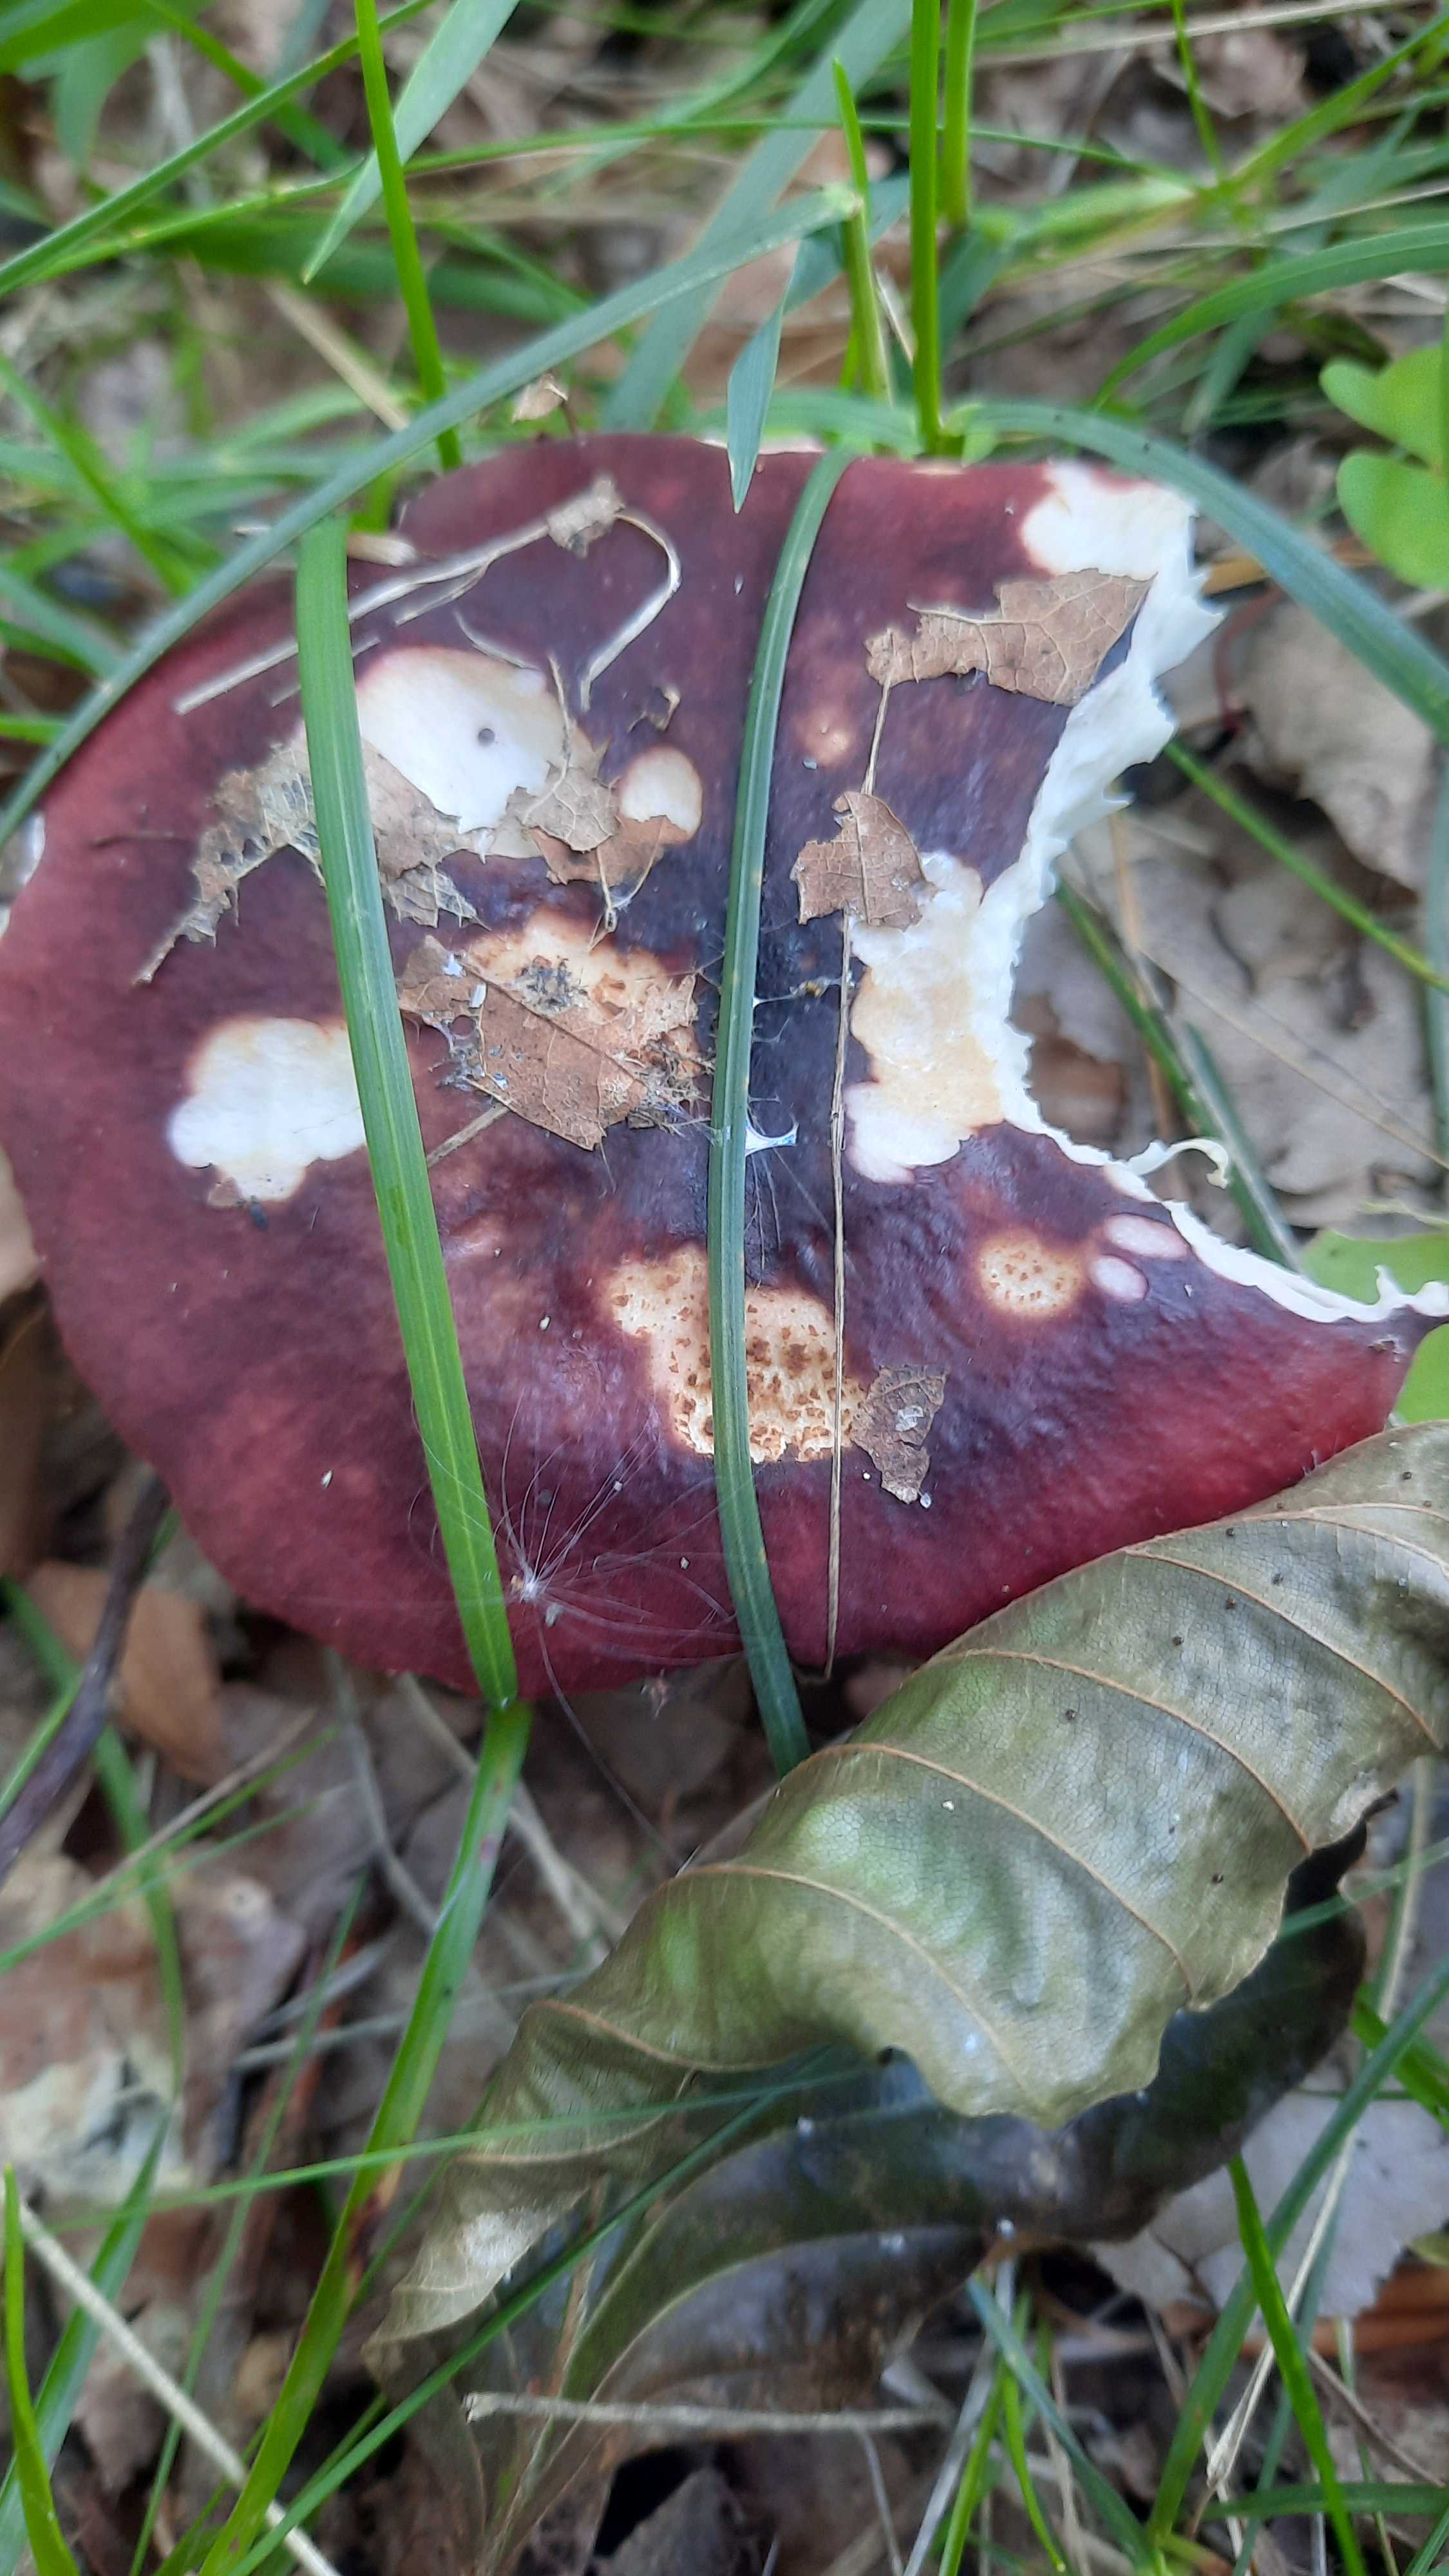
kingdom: Fungi
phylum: Basidiomycota
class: Agaricomycetes
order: Russulales
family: Russulaceae
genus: Russula
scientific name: Russula atropurpurea
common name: purpurbroget skørhat
